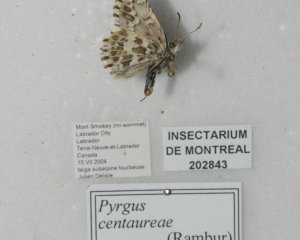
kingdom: Animalia
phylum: Arthropoda
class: Insecta
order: Lepidoptera
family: Hesperiidae
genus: Pyrgus
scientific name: Pyrgus centaureae
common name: Grizzled Skipper
